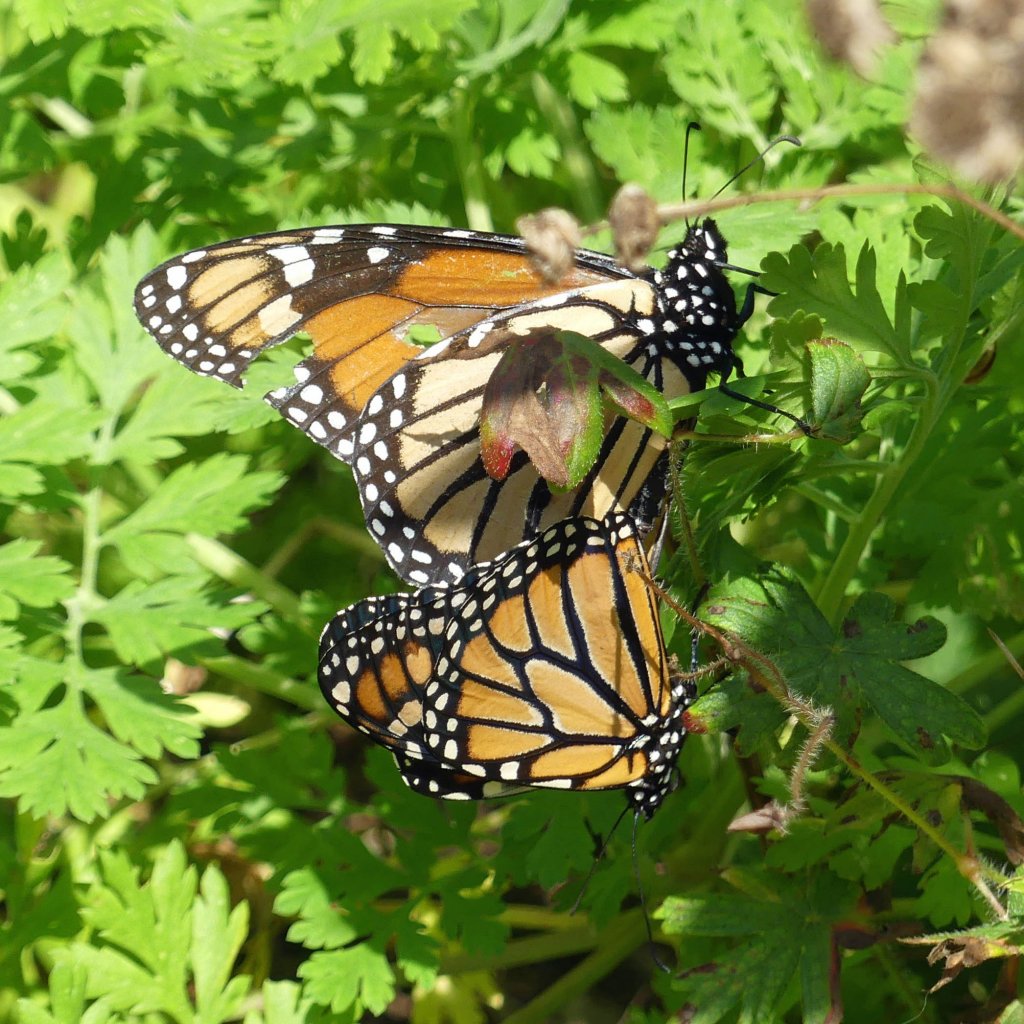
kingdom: Animalia
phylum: Arthropoda
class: Insecta
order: Lepidoptera
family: Nymphalidae
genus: Danaus
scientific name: Danaus plexippus
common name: Monarch
